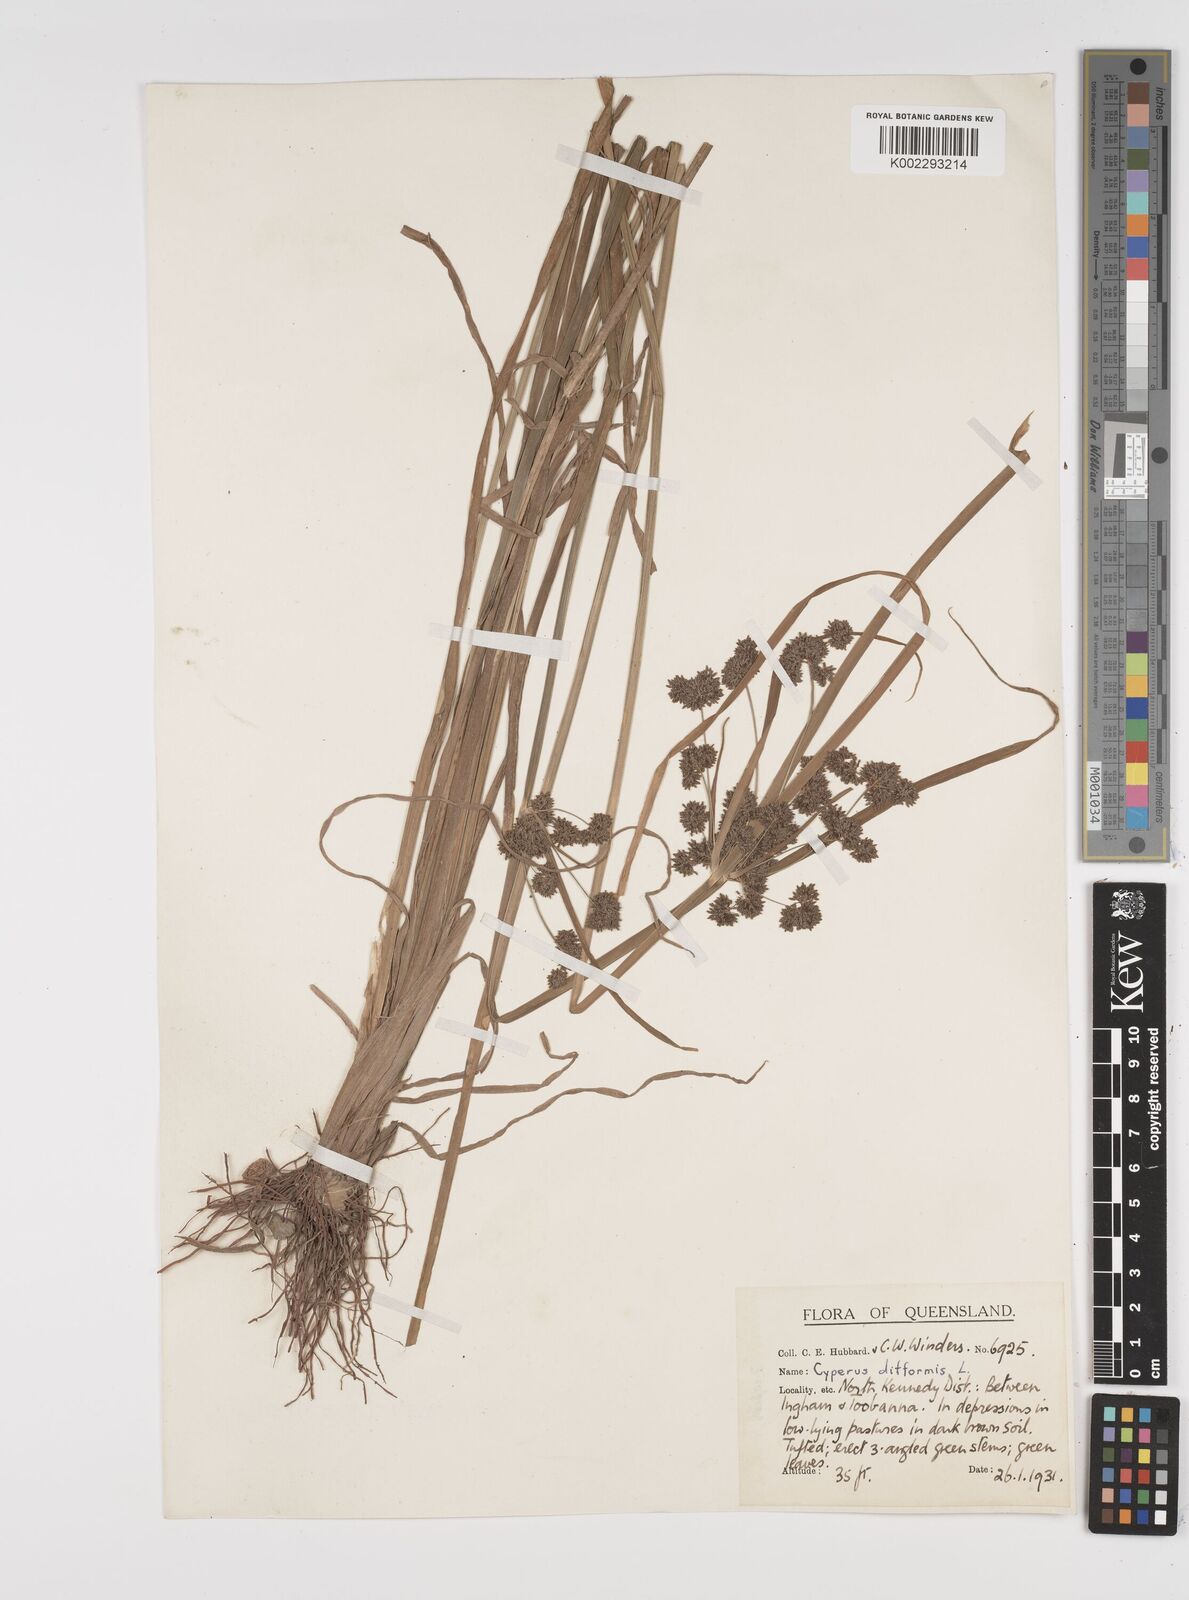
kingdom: Plantae
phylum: Tracheophyta
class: Liliopsida
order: Poales
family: Cyperaceae
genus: Cyperus
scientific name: Cyperus difformis
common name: Variable flatsedge
